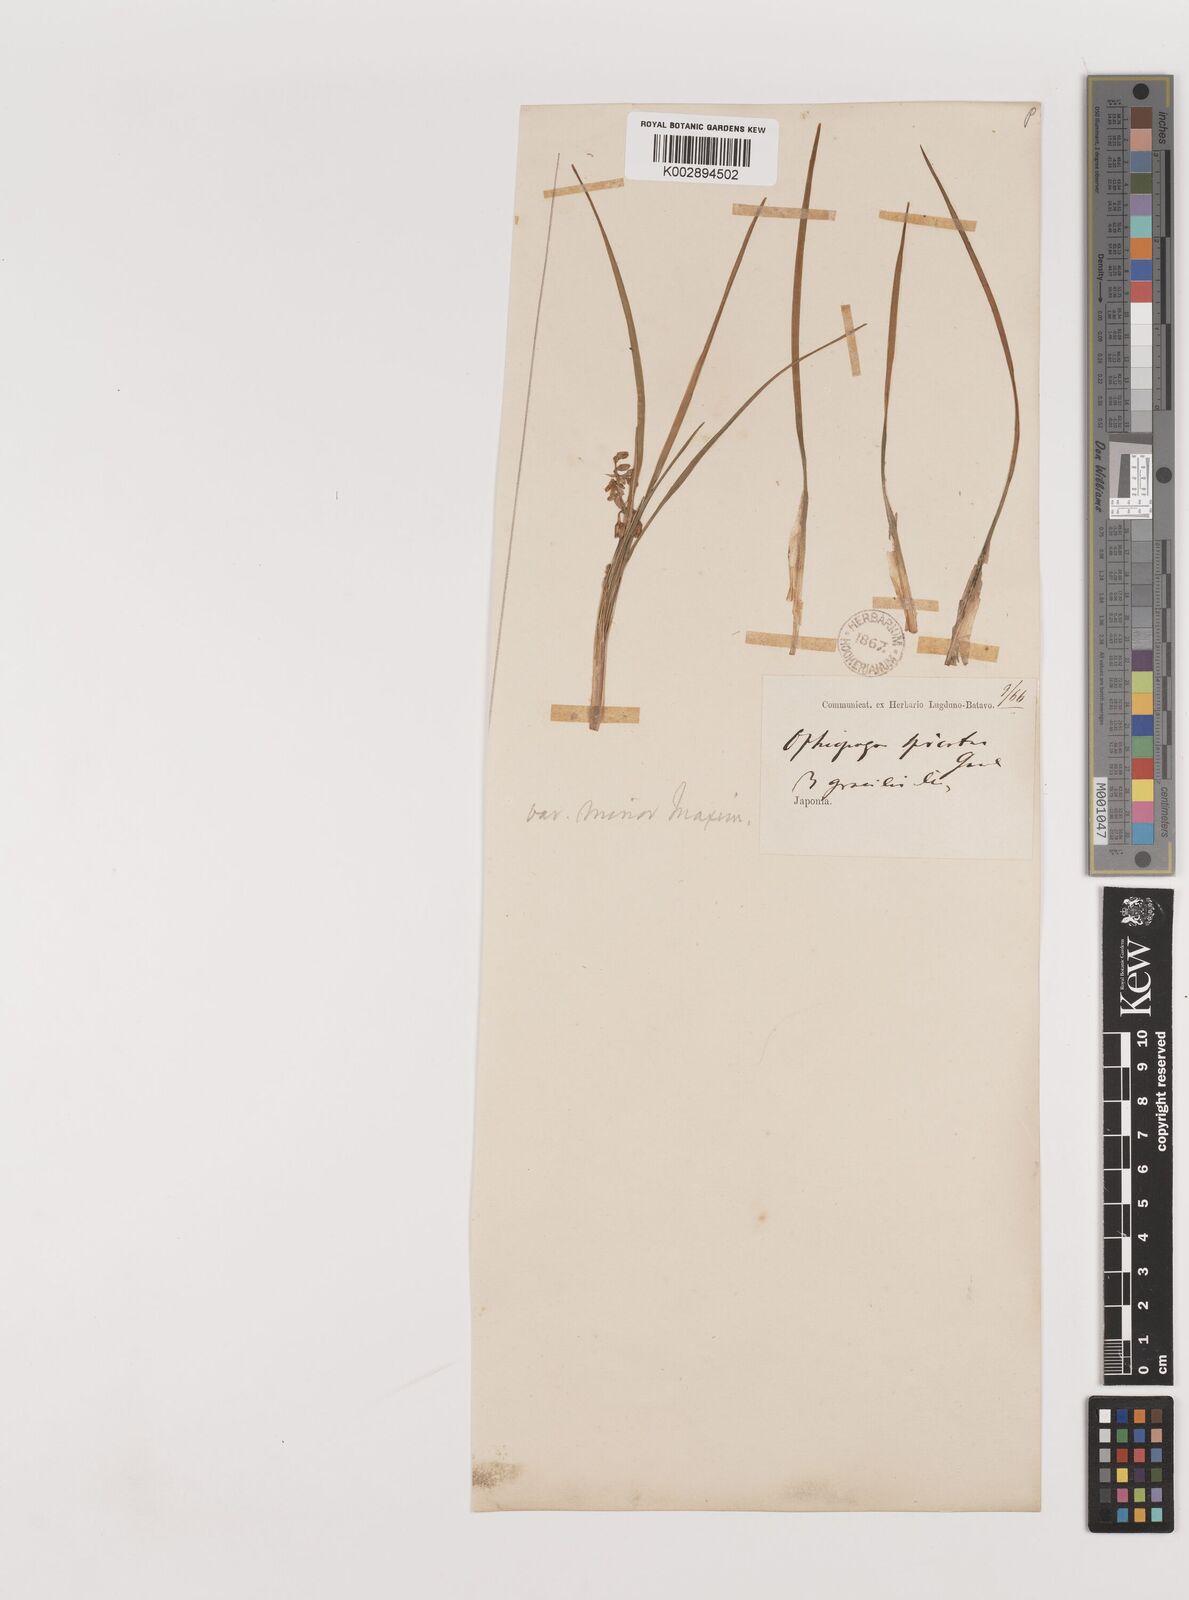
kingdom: Plantae
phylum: Tracheophyta
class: Liliopsida
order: Asparagales
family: Asparagaceae
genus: Liriope
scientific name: Liriope minor
